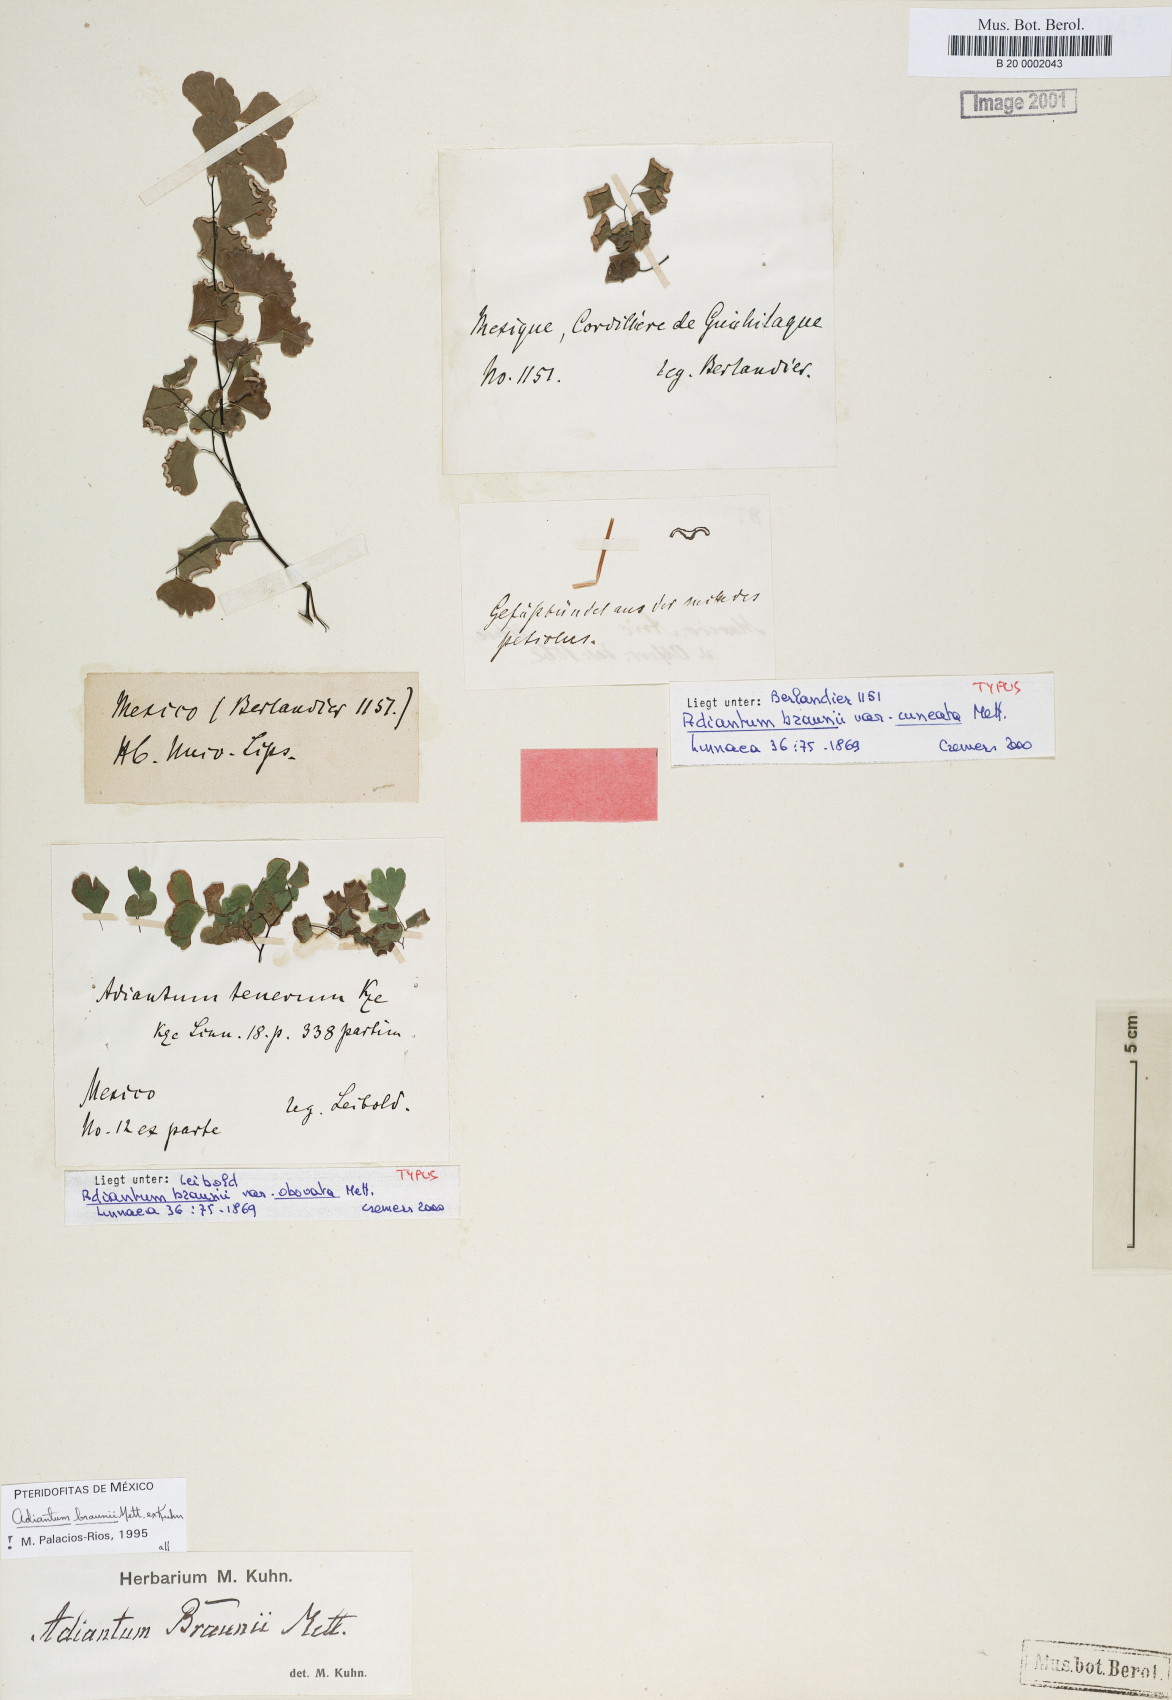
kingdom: Plantae
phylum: Tracheophyta
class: Polypodiopsida
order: Polypodiales
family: Pteridaceae
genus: Adiantum
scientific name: Adiantum braunii
